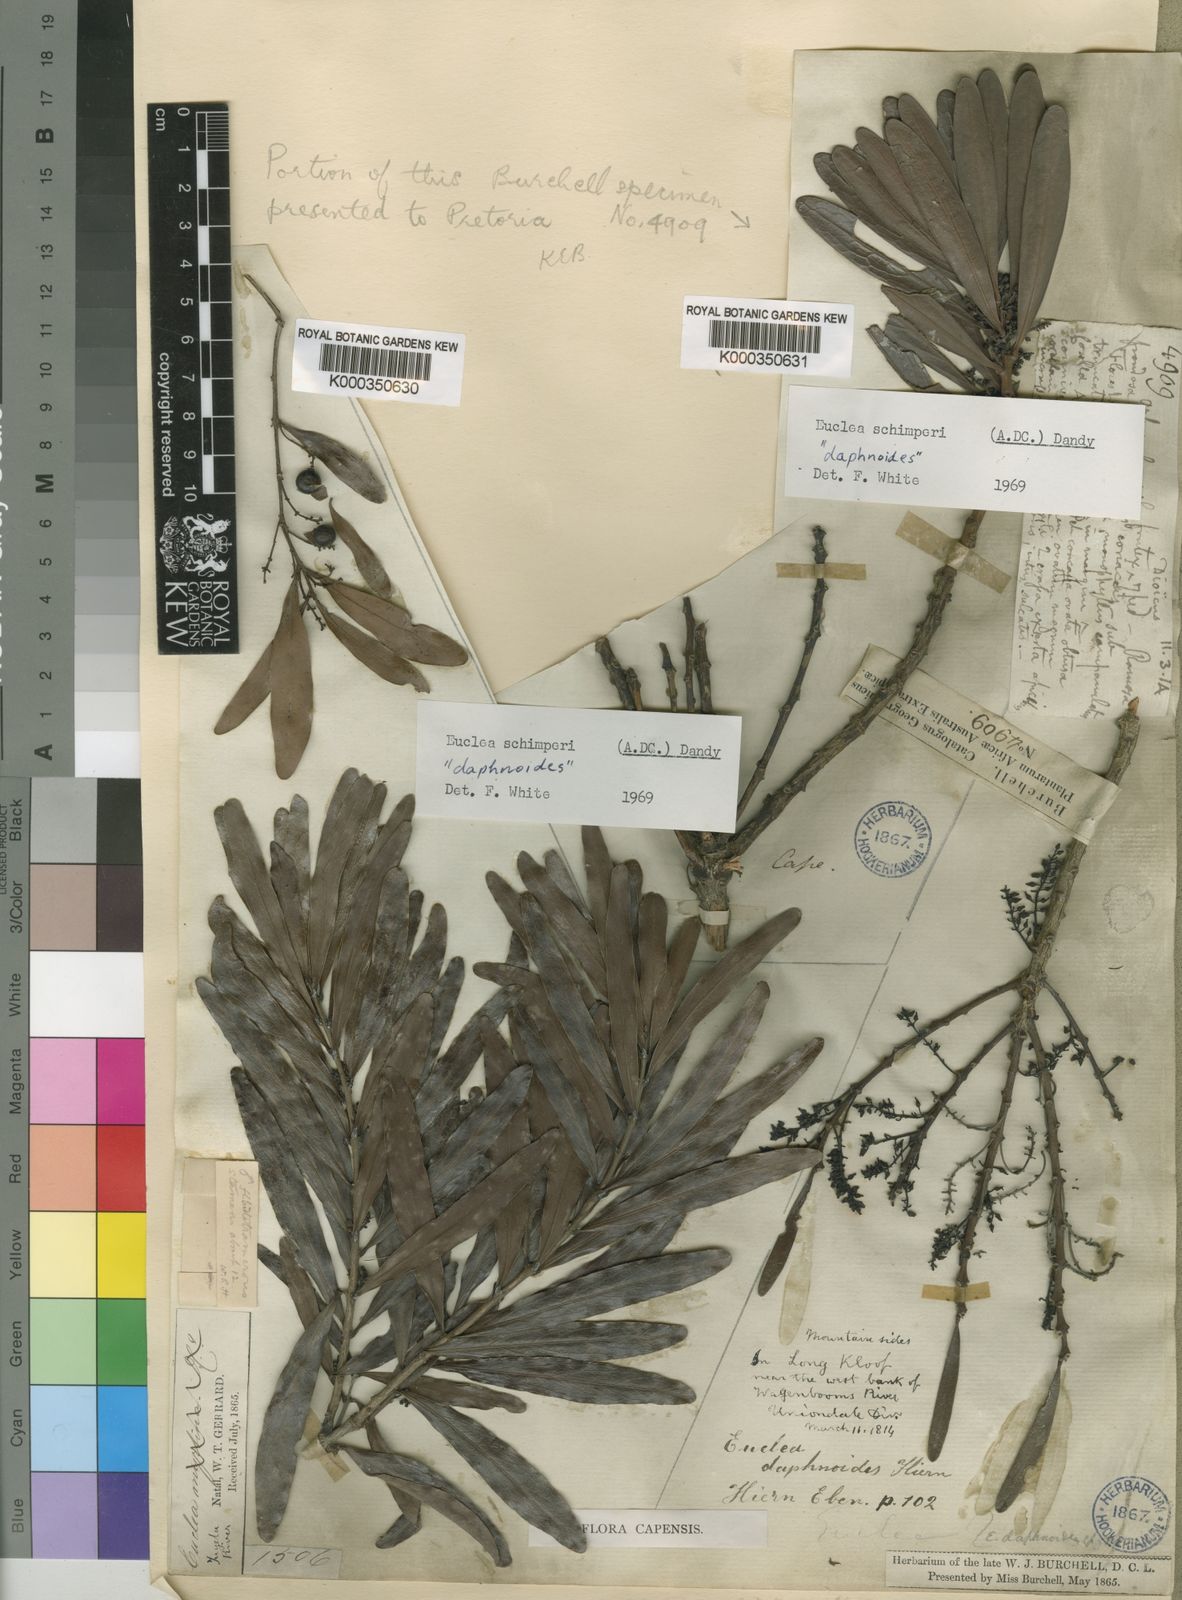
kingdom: Plantae
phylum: Tracheophyta
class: Magnoliopsida
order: Ericales
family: Ebenaceae
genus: Euclea
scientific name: Euclea racemosa
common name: Dune guarri
